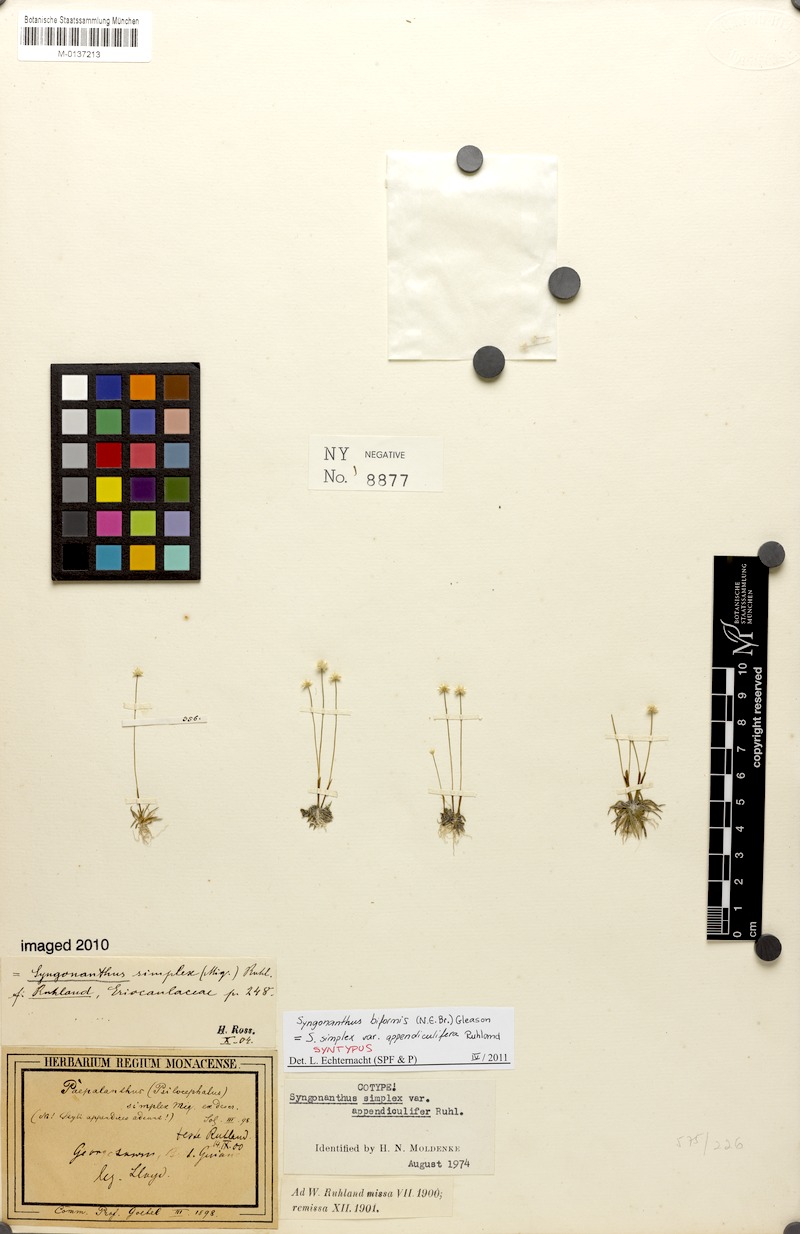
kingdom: Plantae
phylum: Tracheophyta
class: Liliopsida
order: Poales
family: Eriocaulaceae
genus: Syngonanthus
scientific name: Syngonanthus biformis
